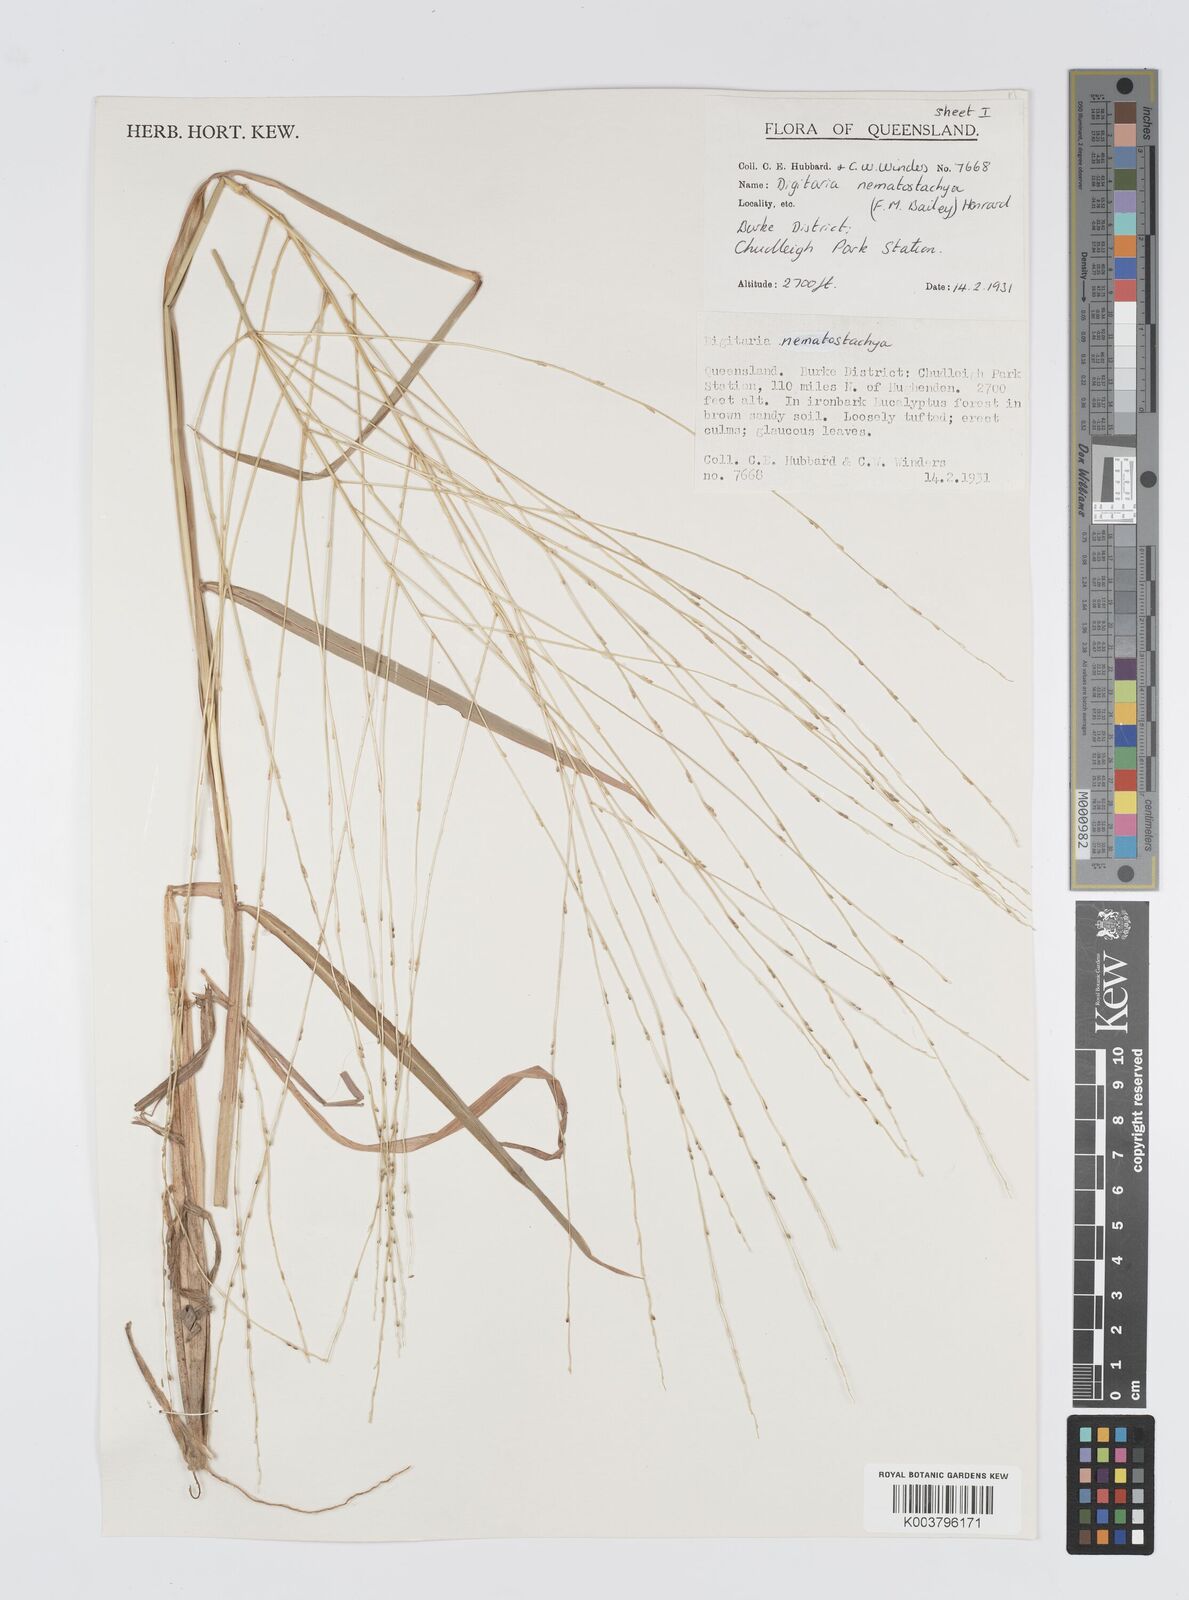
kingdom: Plantae
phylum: Tracheophyta
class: Liliopsida
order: Poales
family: Poaceae
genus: Digitaria
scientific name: Digitaria nematostachya
